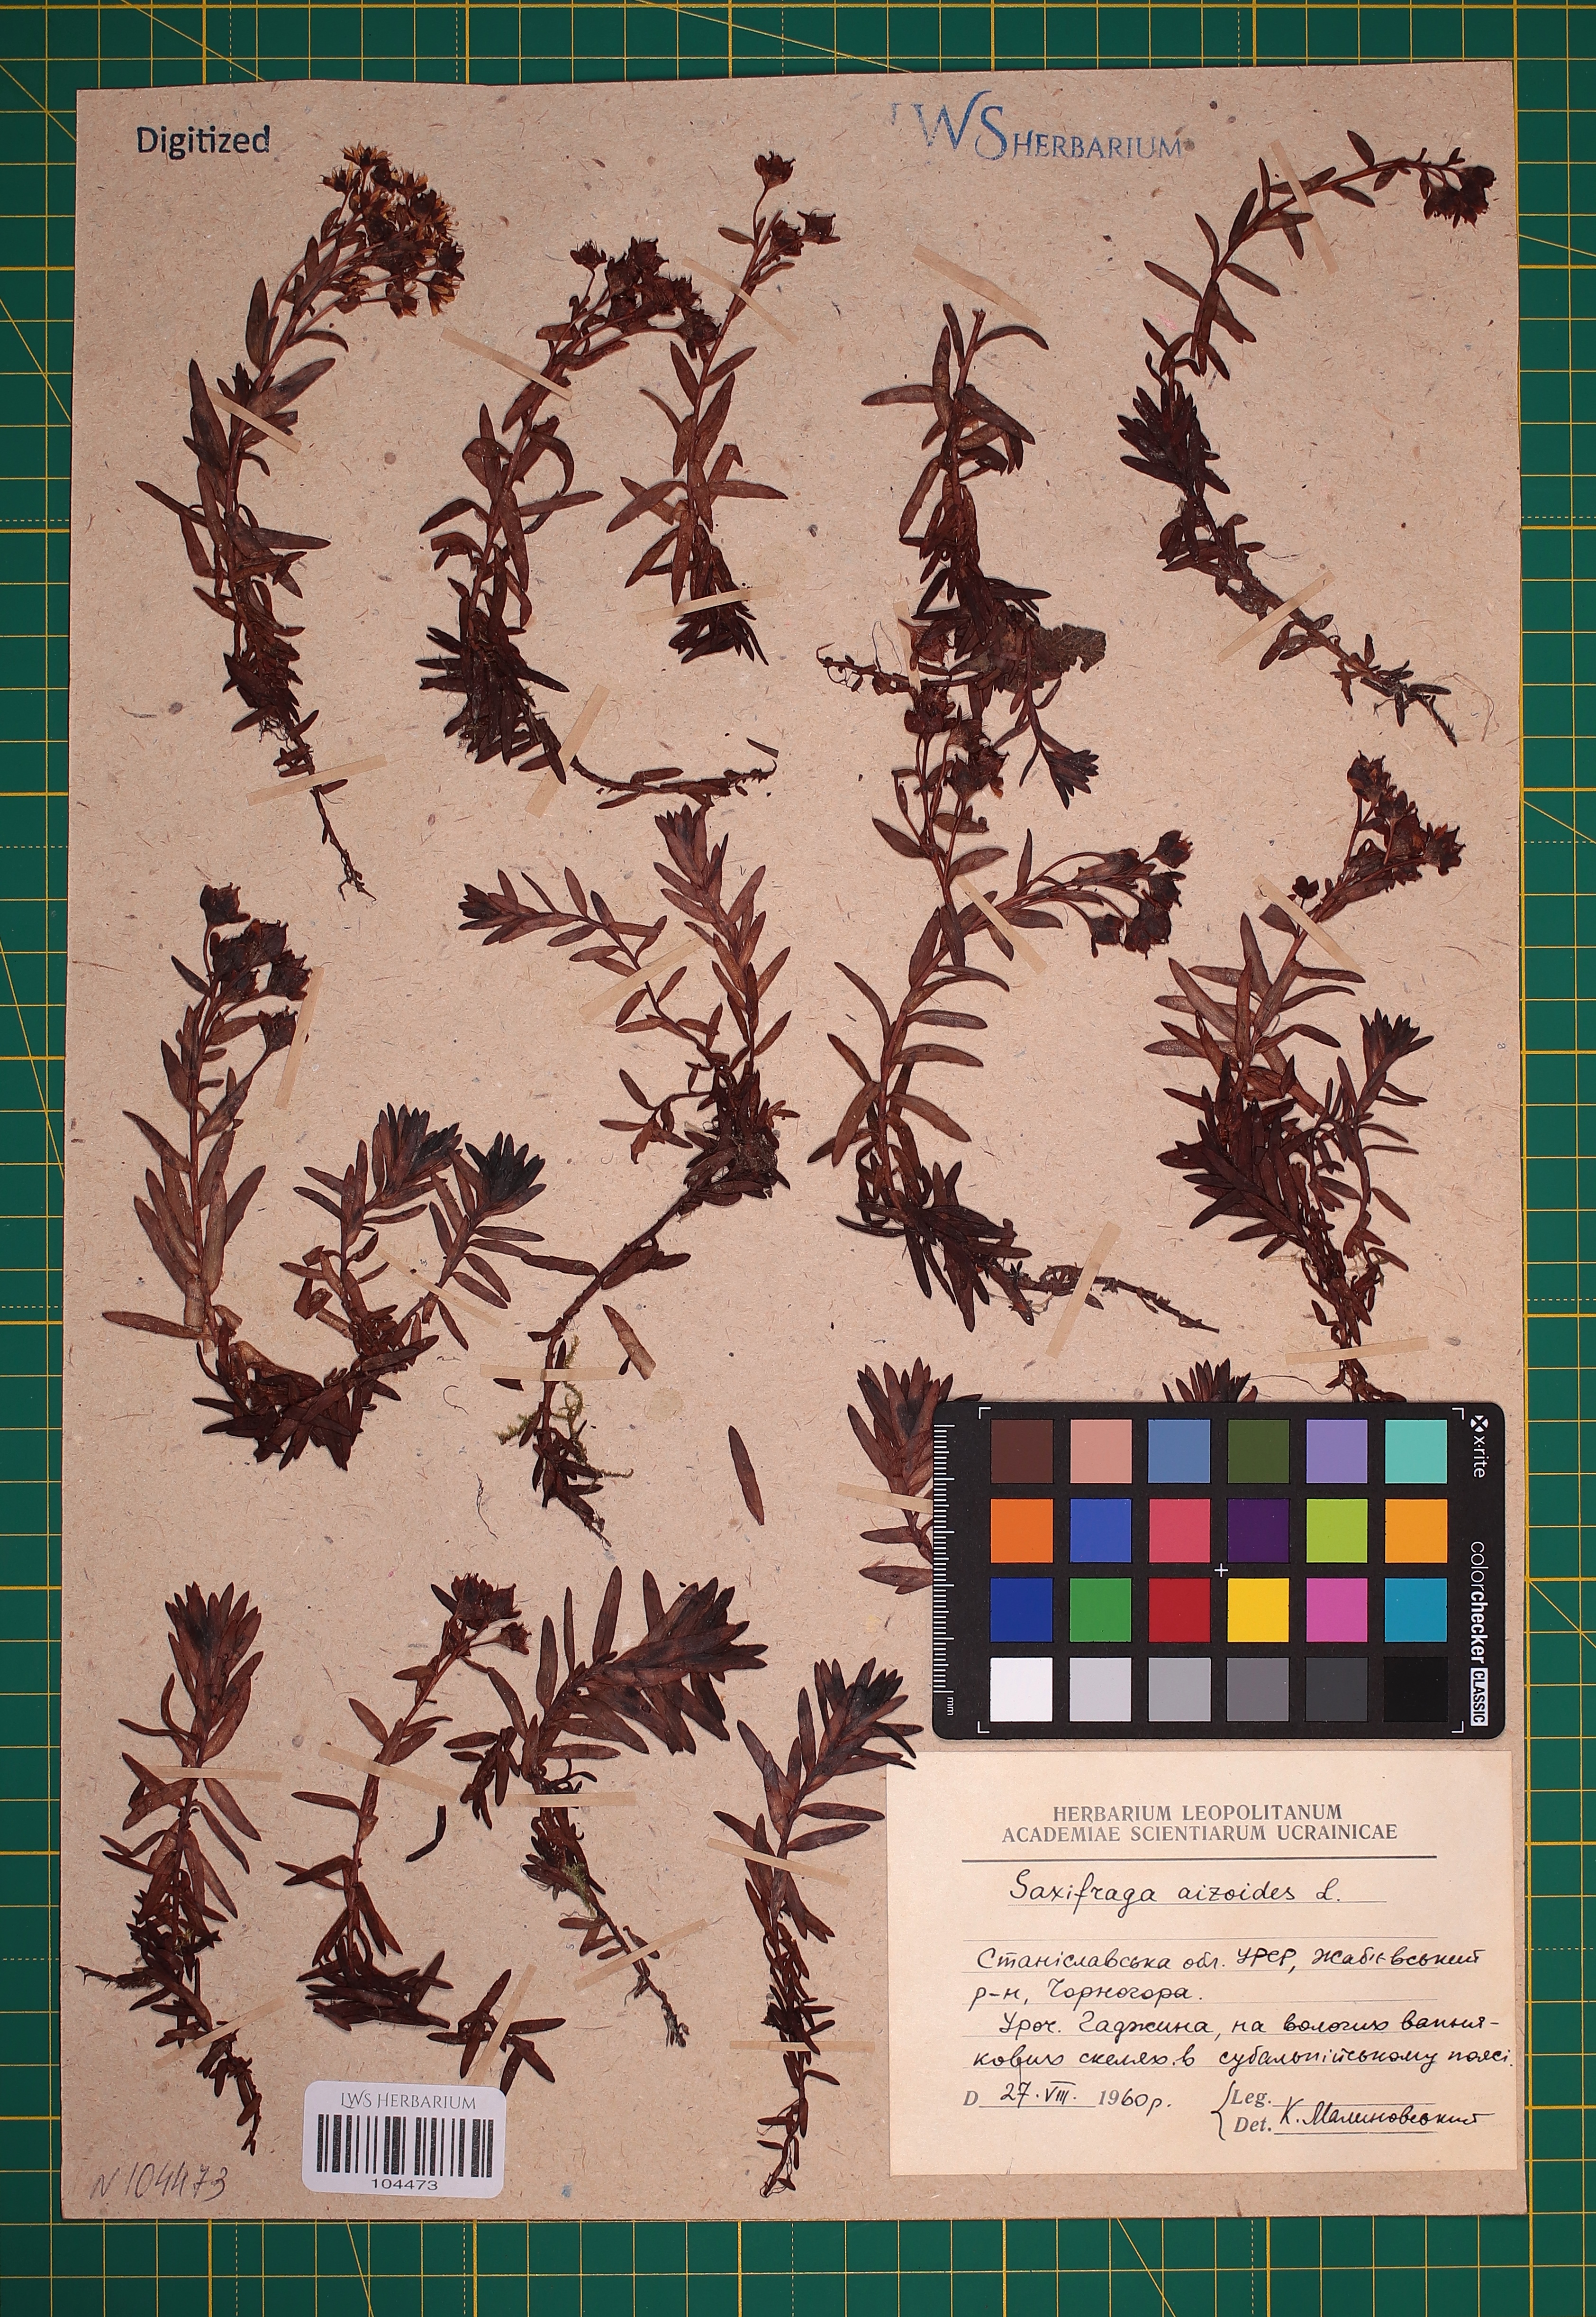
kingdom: Plantae
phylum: Tracheophyta
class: Magnoliopsida
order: Saxifragales
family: Saxifragaceae
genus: Saxifraga
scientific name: Saxifraga aizoides
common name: Yellow mountain saxifrage
